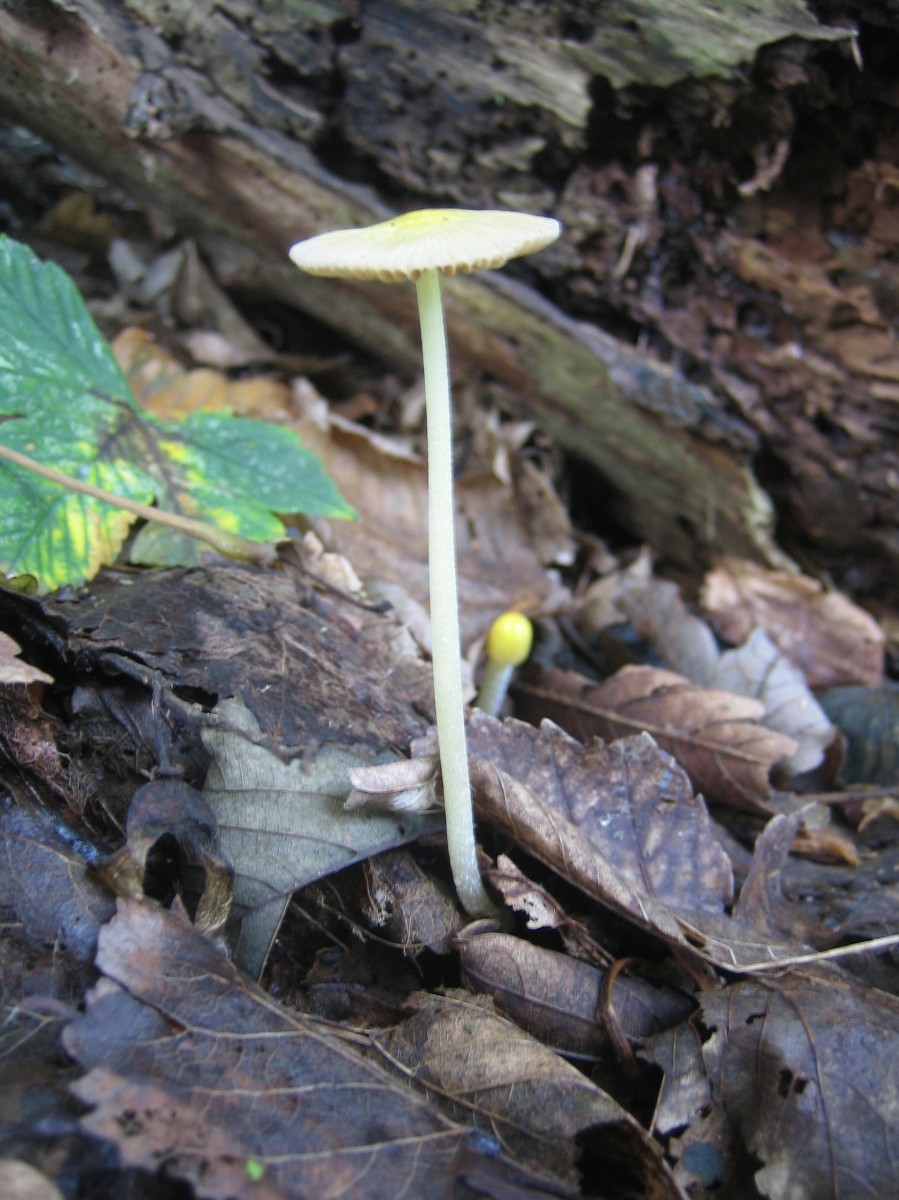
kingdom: Fungi
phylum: Basidiomycota
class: Agaricomycetes
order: Agaricales
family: Bolbitiaceae
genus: Bolbitius
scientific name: Bolbitius titubans
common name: almindelig gulhat
